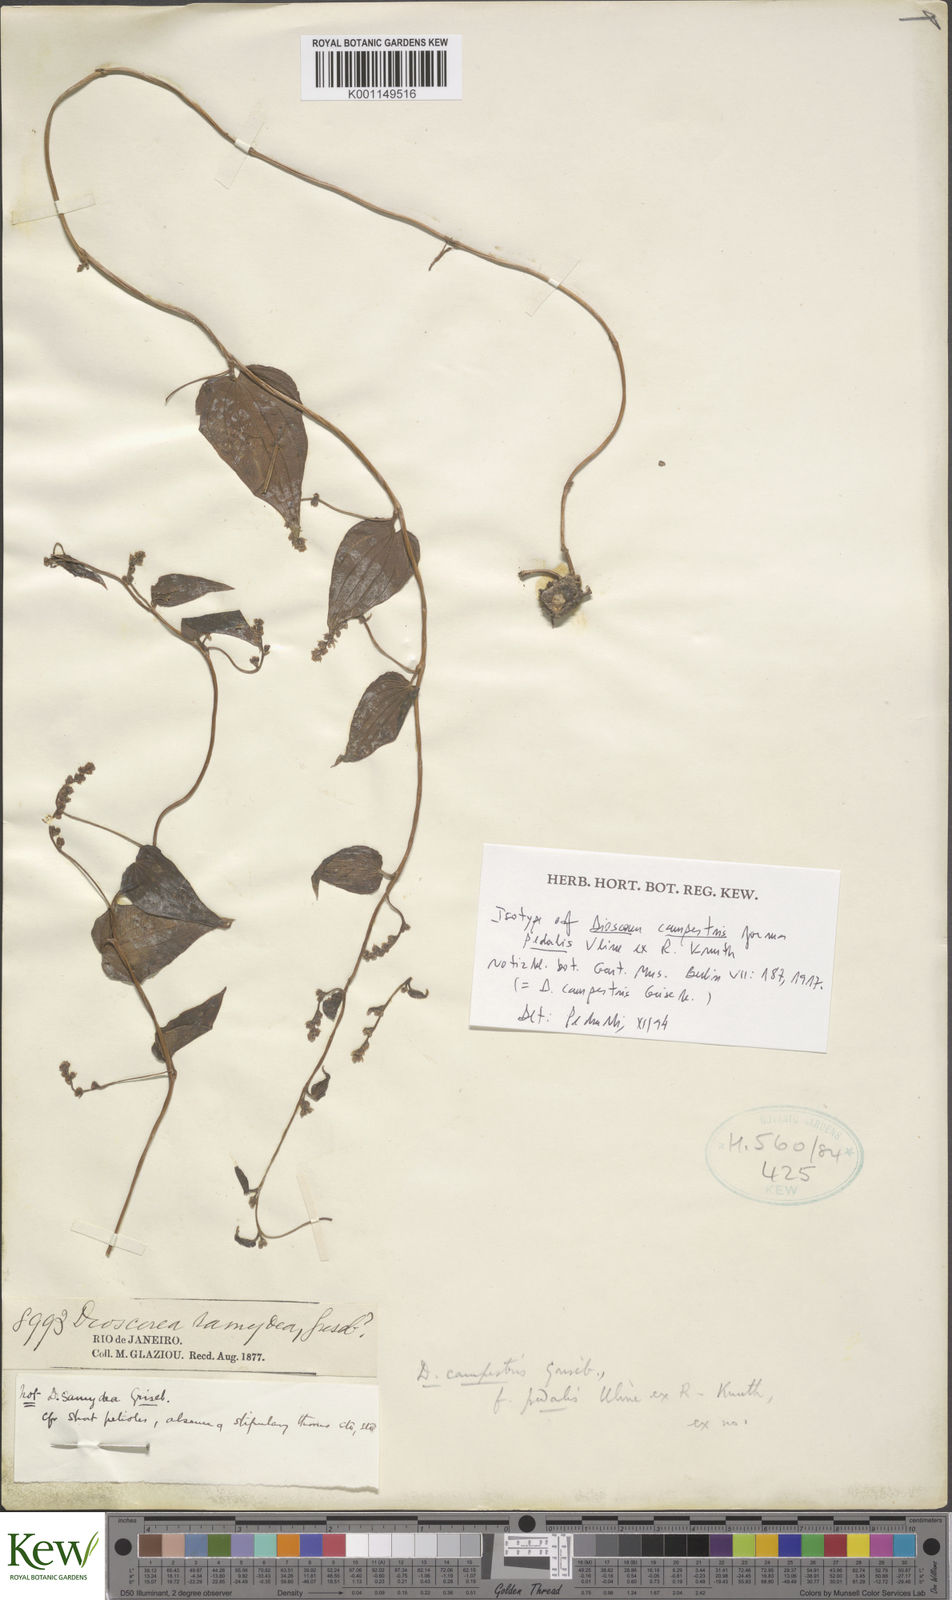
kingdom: Plantae
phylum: Tracheophyta
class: Liliopsida
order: Dioscoreales
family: Dioscoreaceae
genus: Dioscorea
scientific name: Dioscorea pedalis
